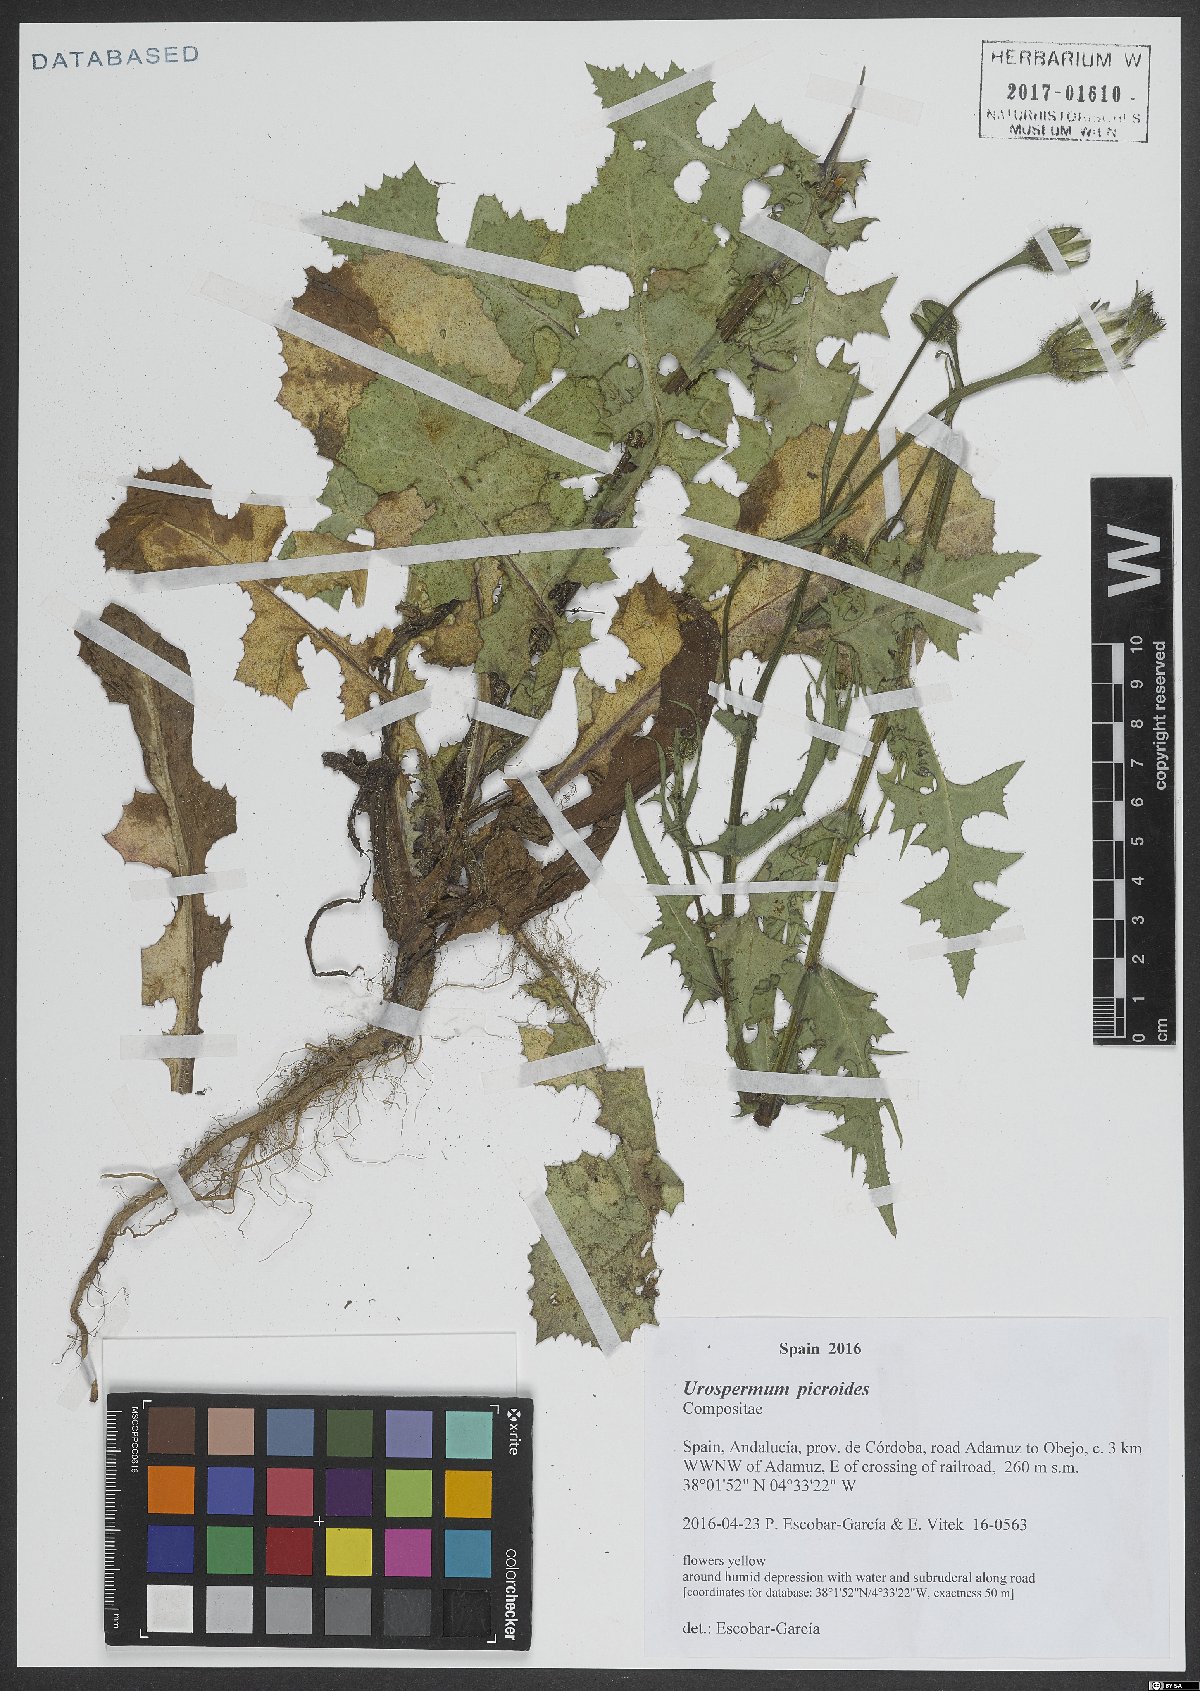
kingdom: Plantae
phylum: Tracheophyta
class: Magnoliopsida
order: Asterales
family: Asteraceae
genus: Urospermum
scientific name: Urospermum picroides
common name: False hawkbit
